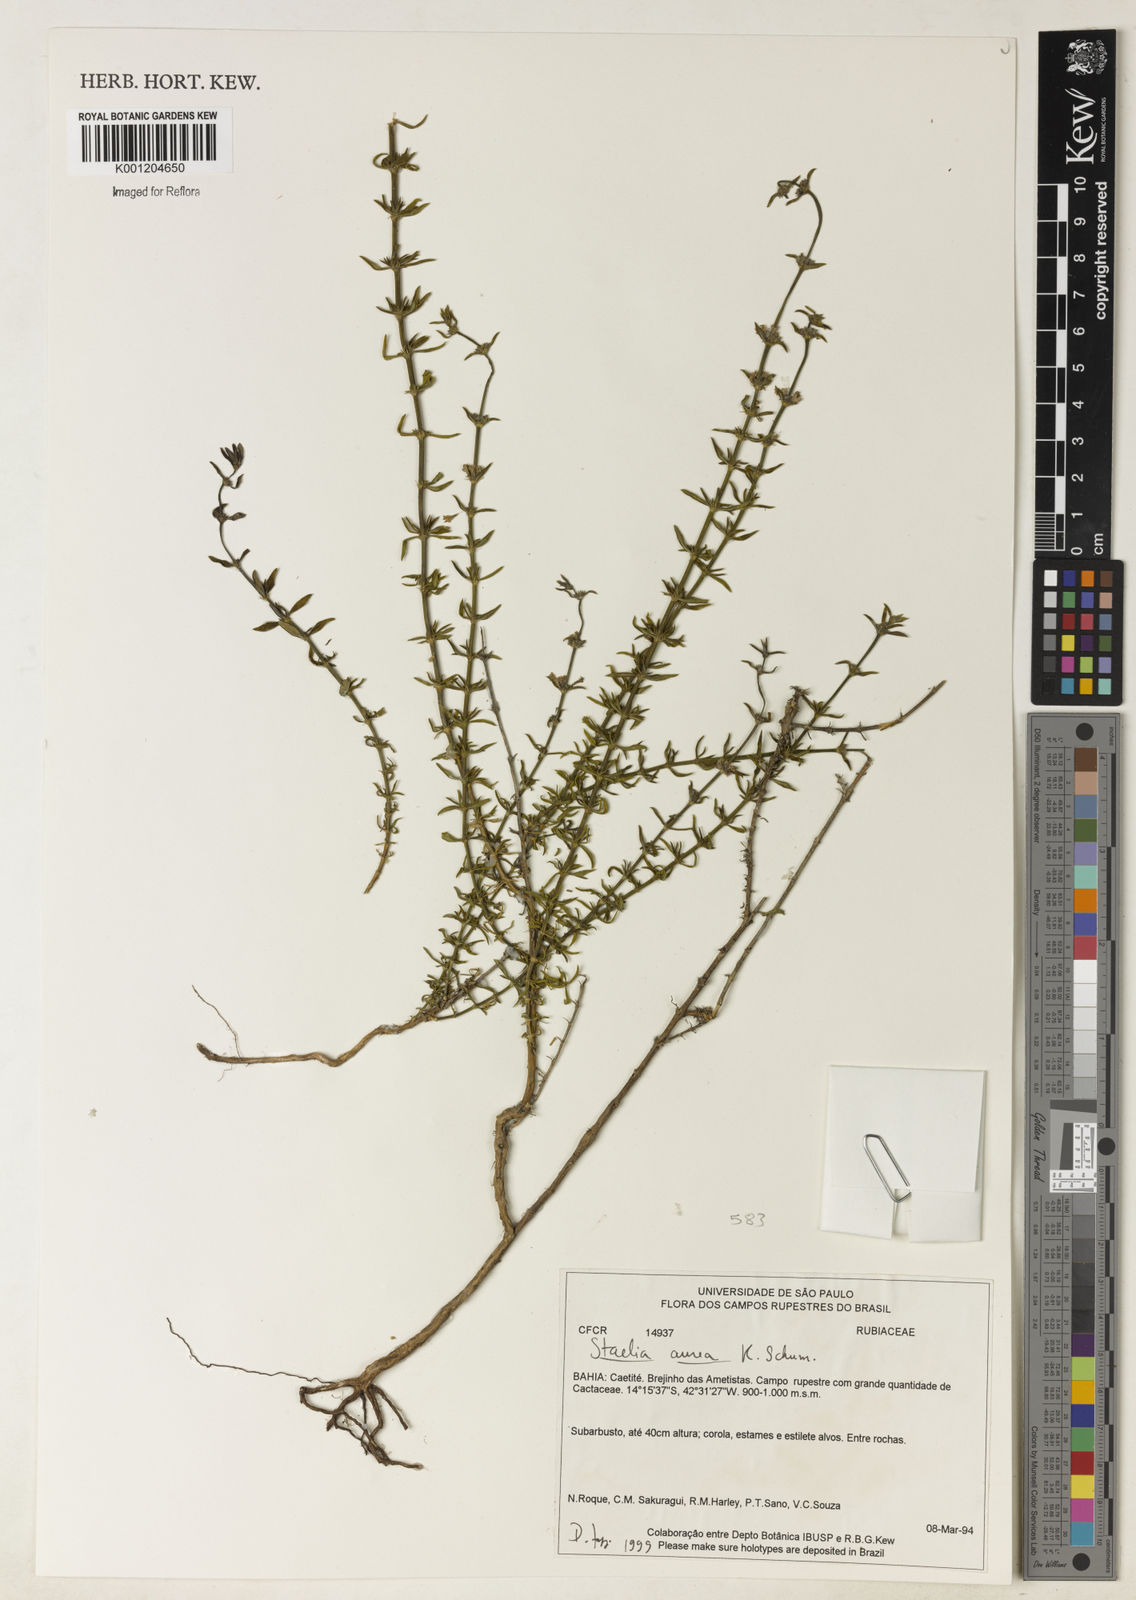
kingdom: Plantae
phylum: Tracheophyta
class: Magnoliopsida
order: Gentianales
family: Rubiaceae
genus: Staelia
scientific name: Staelia aurea
